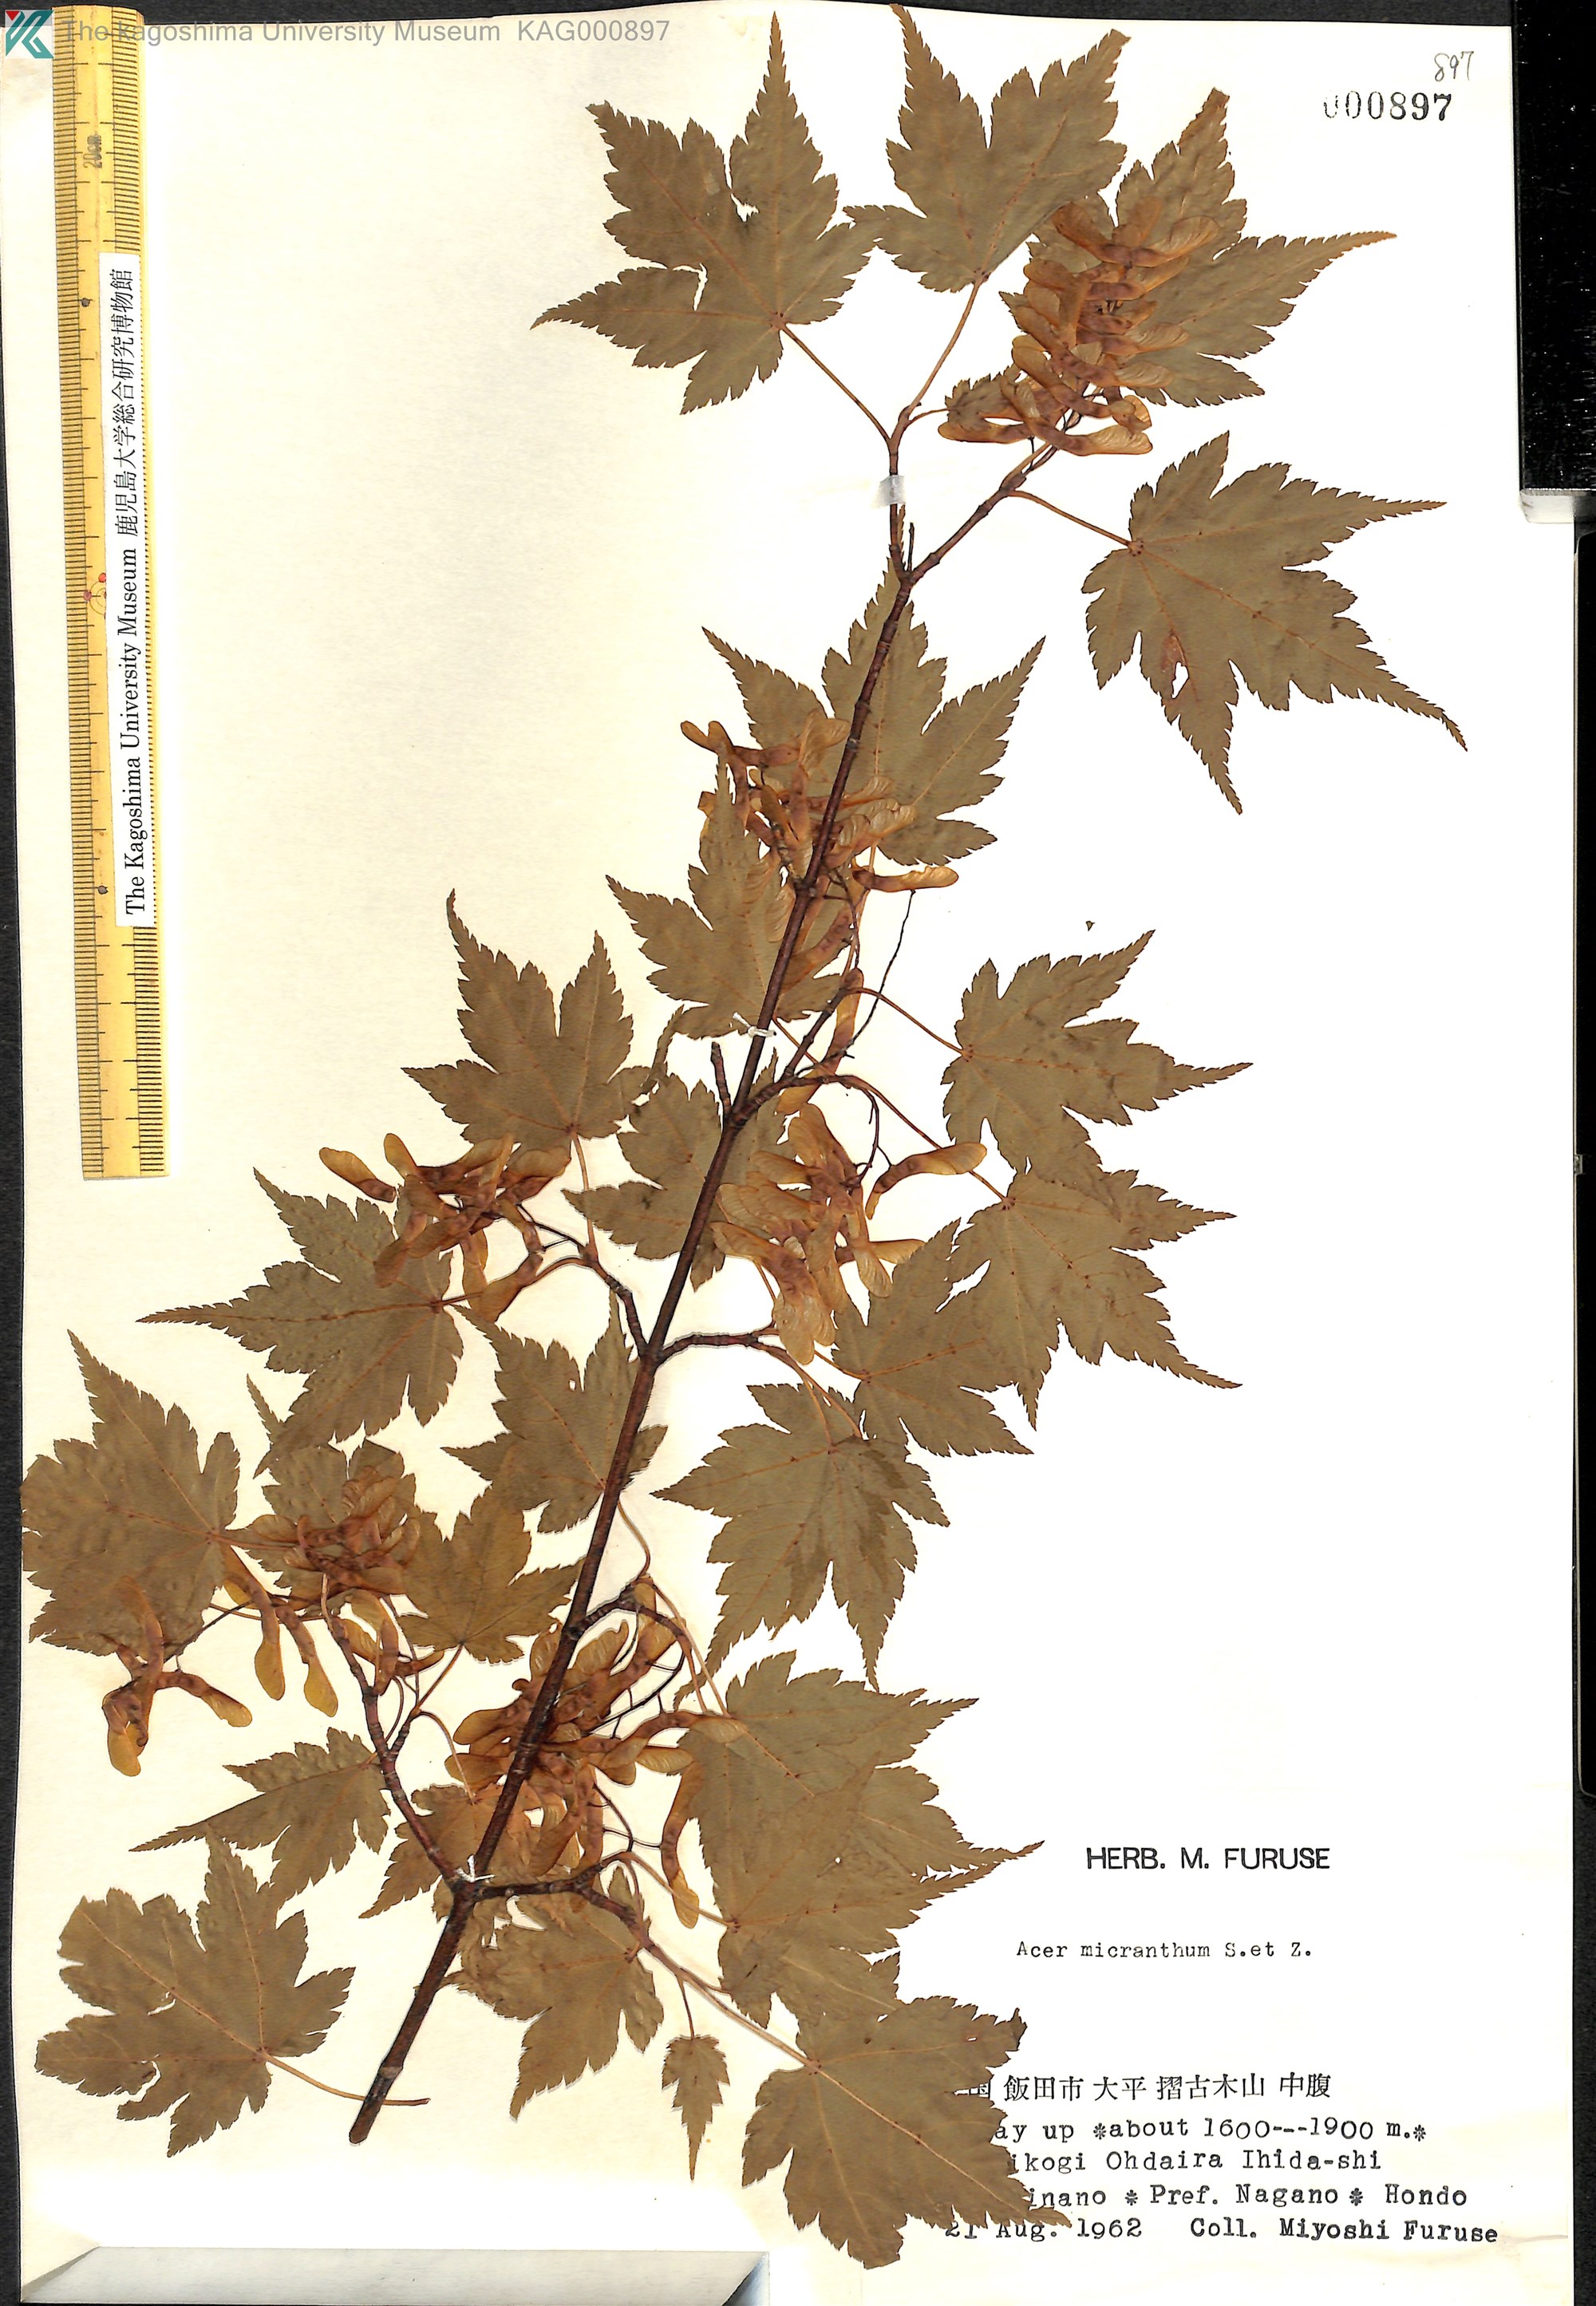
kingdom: Plantae
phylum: Tracheophyta
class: Magnoliopsida
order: Sapindales
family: Sapindaceae
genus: Acer
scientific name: Acer micranthum
